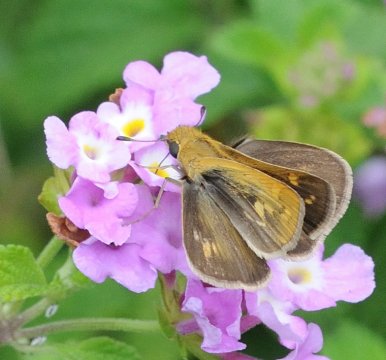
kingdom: Animalia
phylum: Arthropoda
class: Insecta
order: Lepidoptera
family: Hesperiidae
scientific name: Hesperiidae
